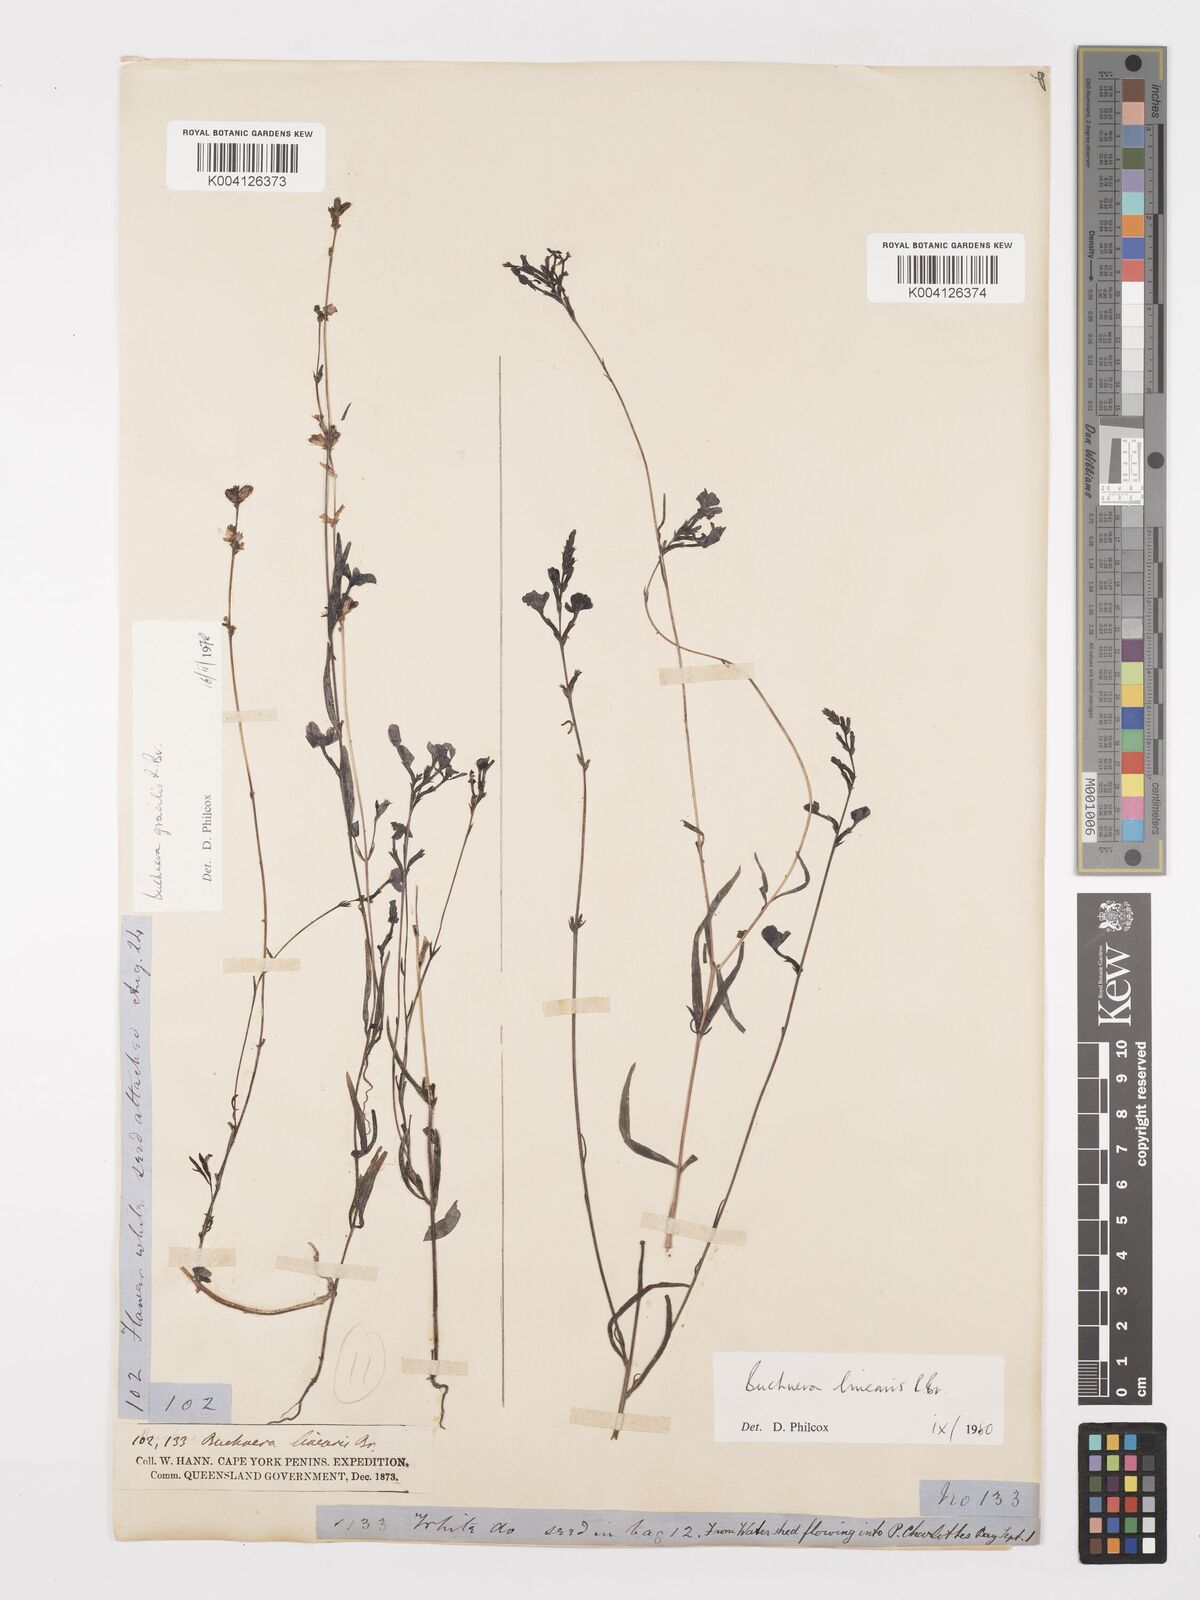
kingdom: Plantae
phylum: Tracheophyta
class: Magnoliopsida
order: Lamiales
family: Orobanchaceae
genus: Buchnera
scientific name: Buchnera gracilis
